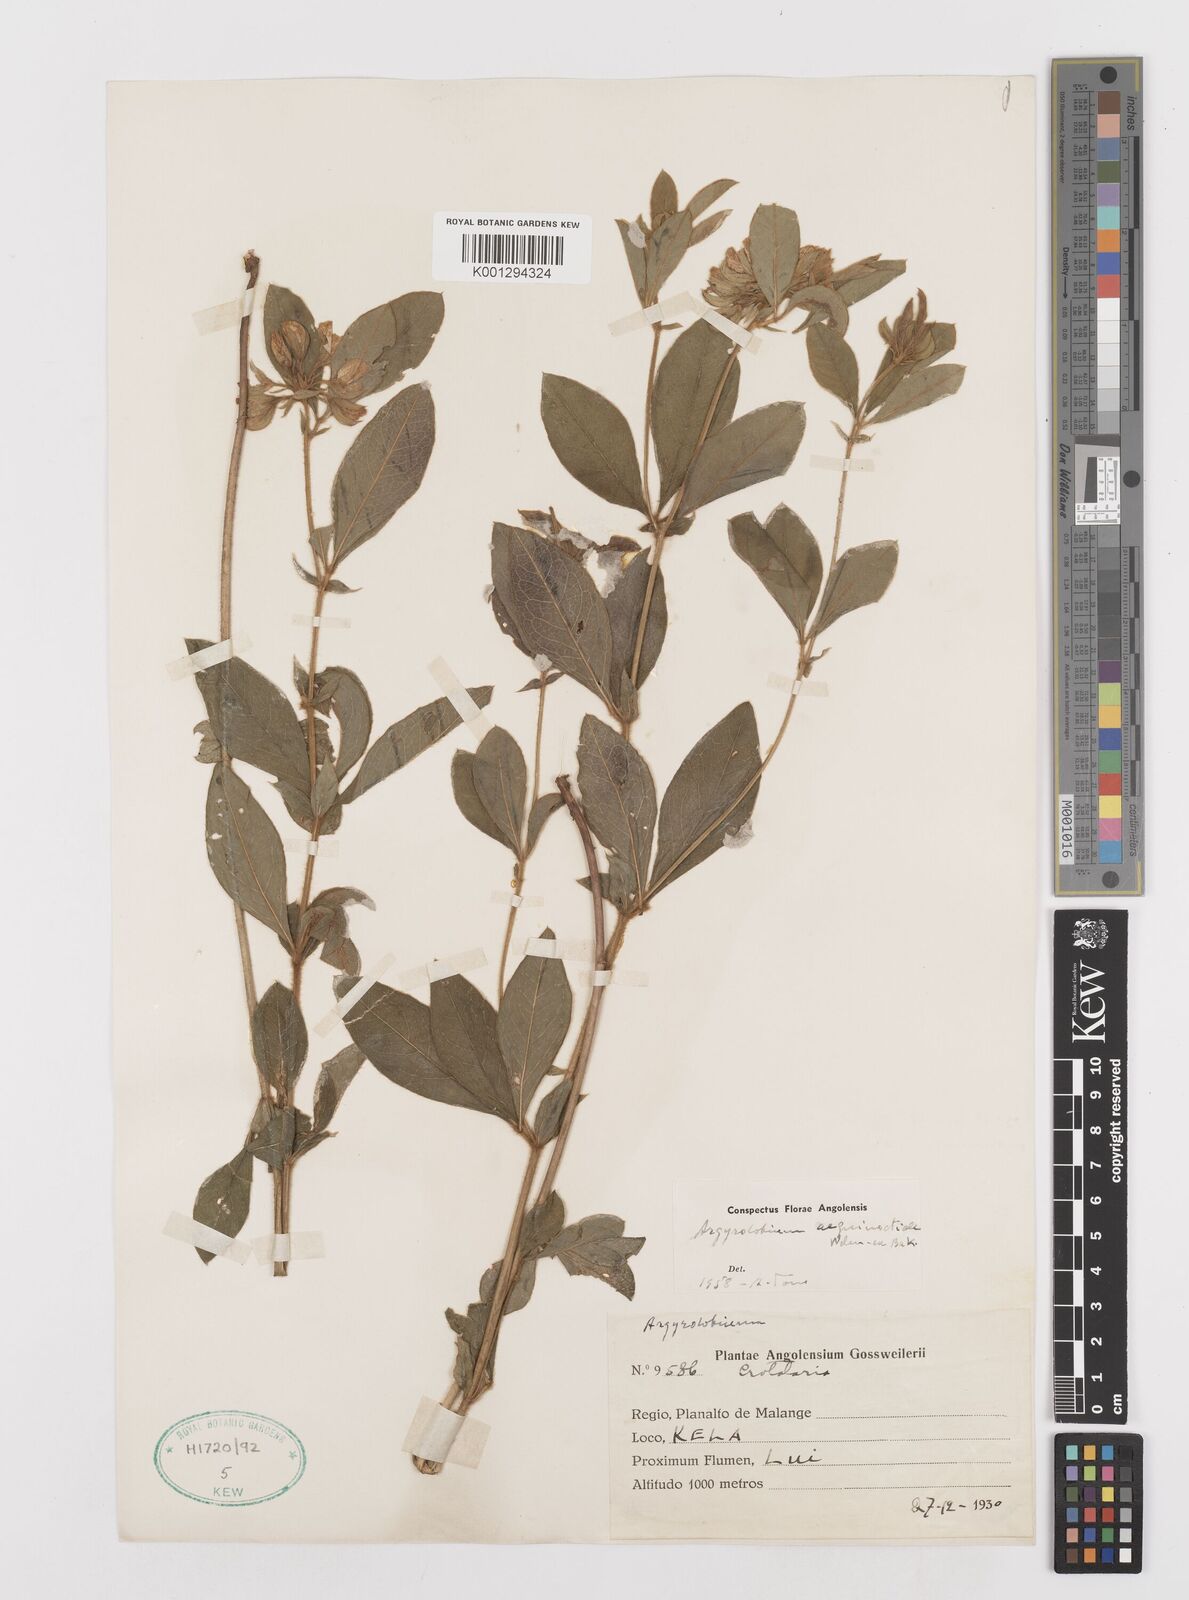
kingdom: Plantae
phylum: Tracheophyta
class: Magnoliopsida
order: Fabales
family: Fabaceae
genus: Argyrolobium
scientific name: Argyrolobium aequinoctiale
